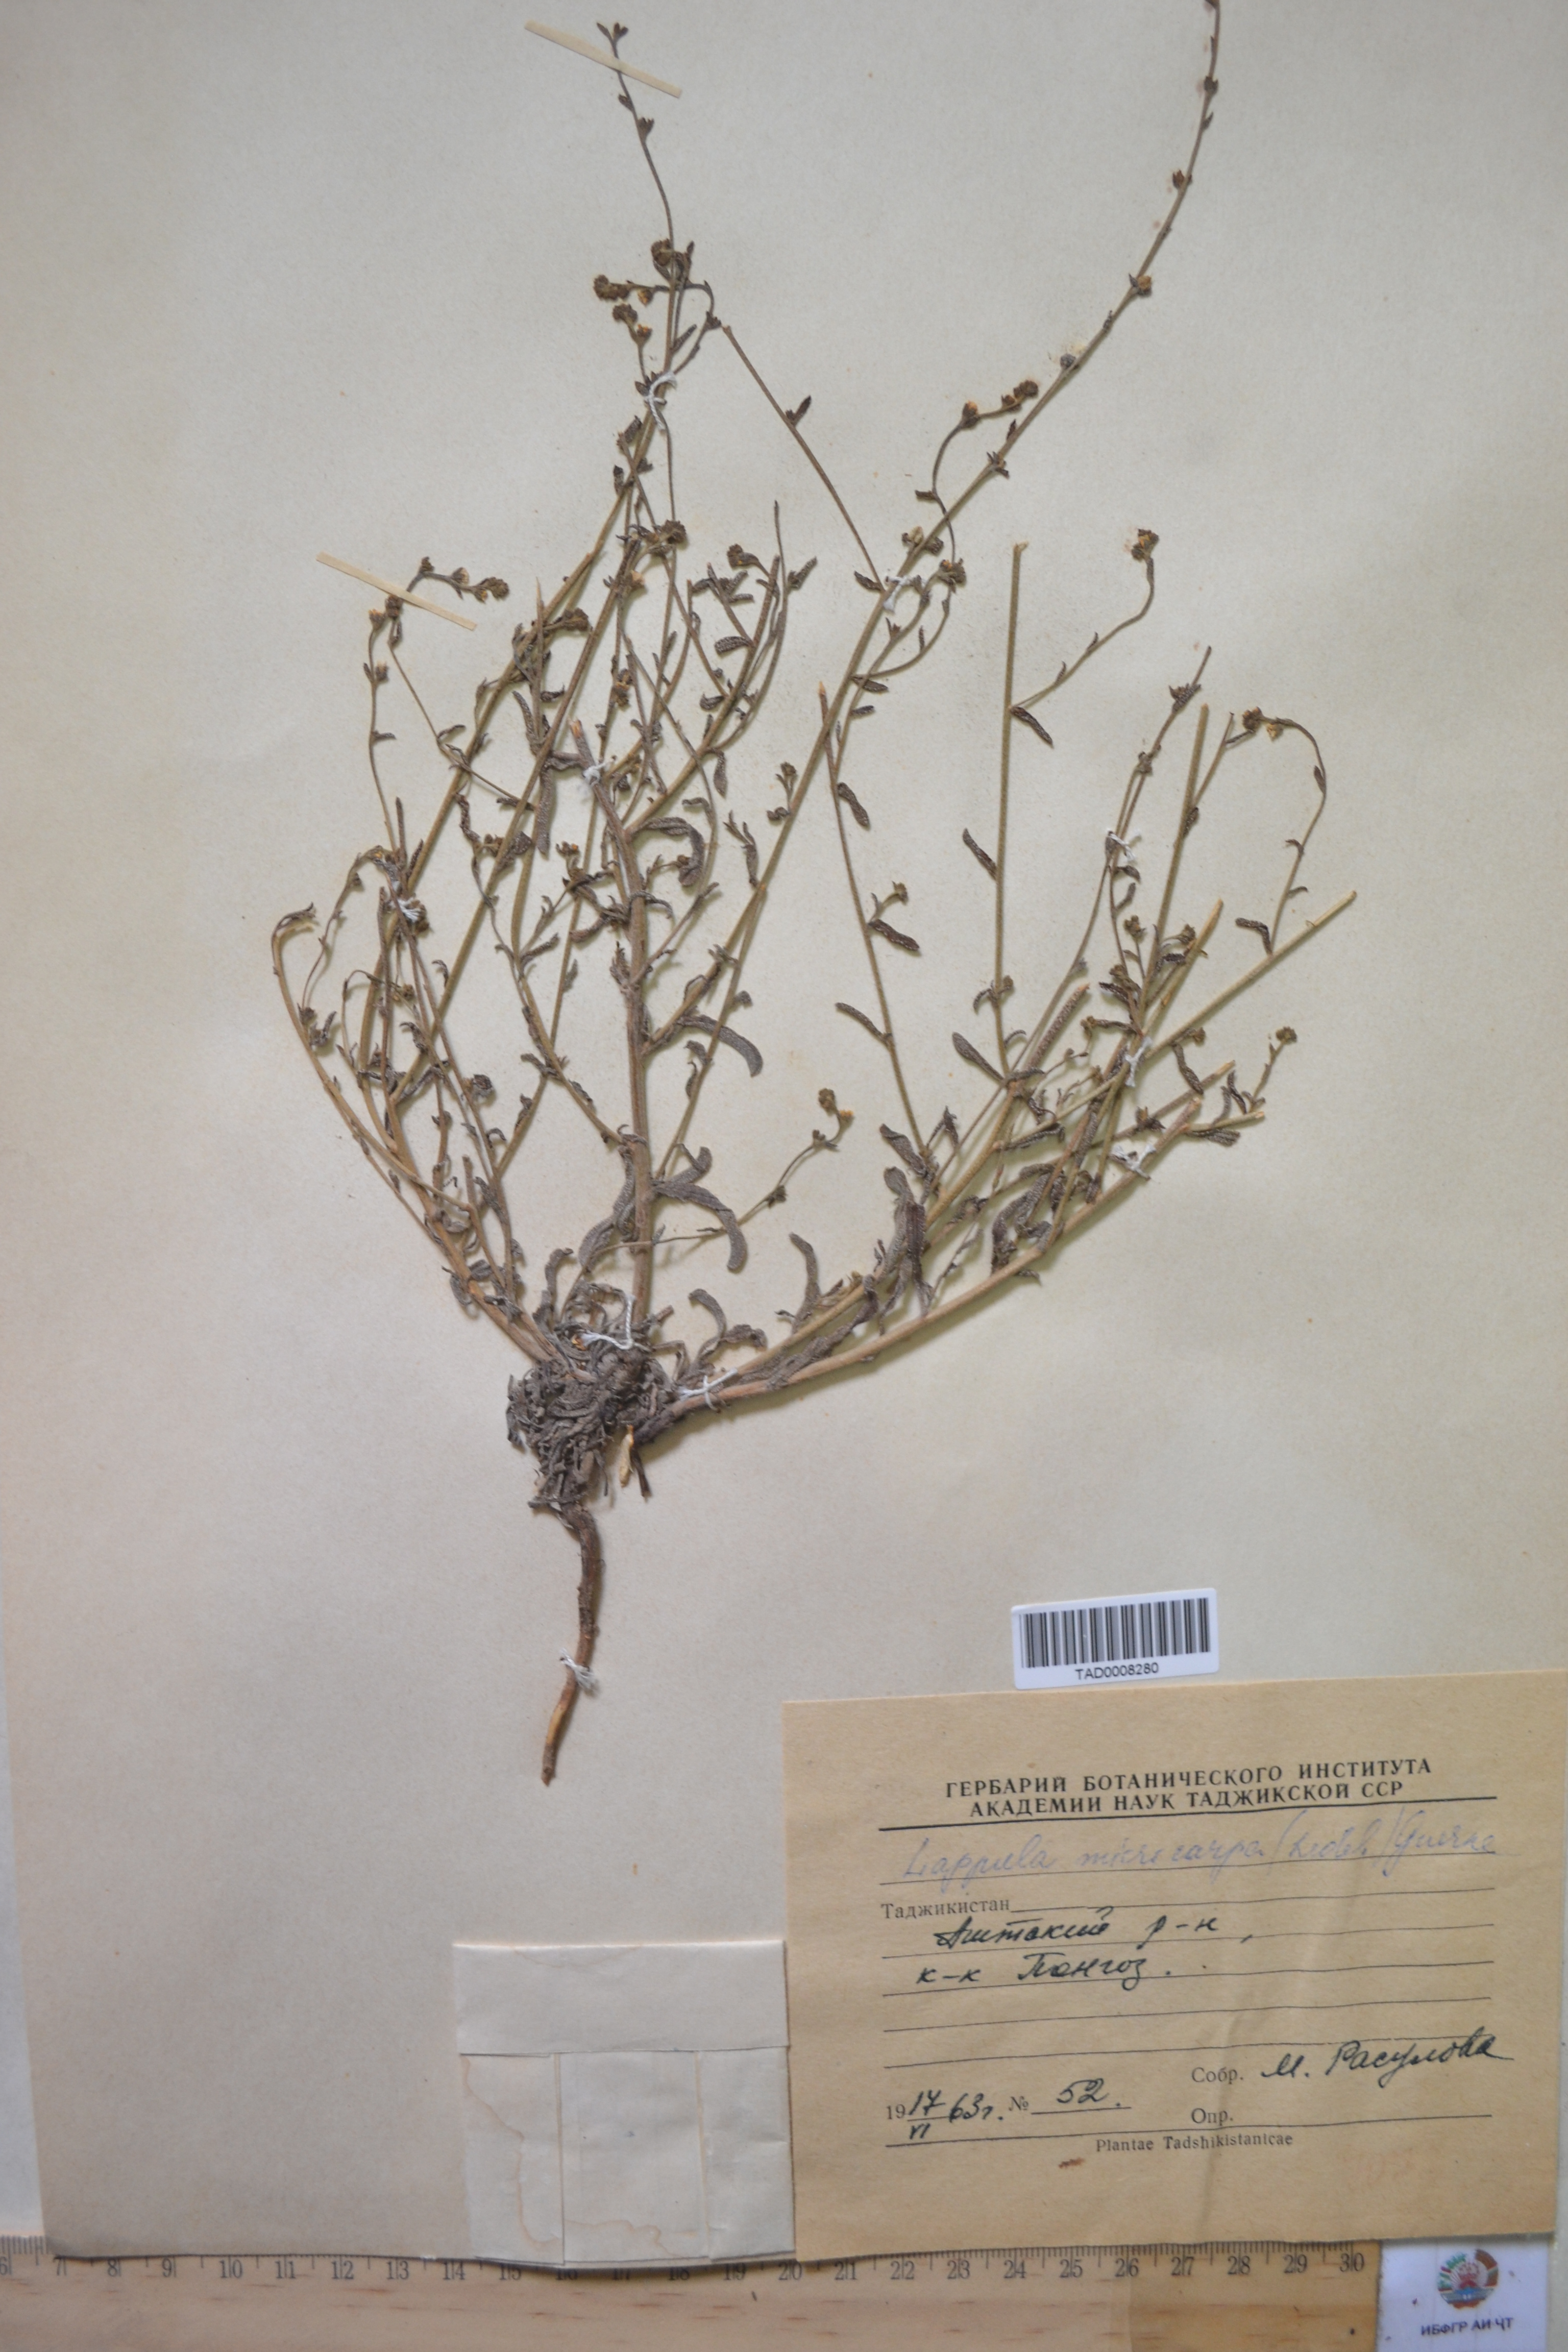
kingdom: Plantae
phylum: Tracheophyta
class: Magnoliopsida
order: Boraginales
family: Boraginaceae
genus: Lappula
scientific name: Lappula microcarpa
